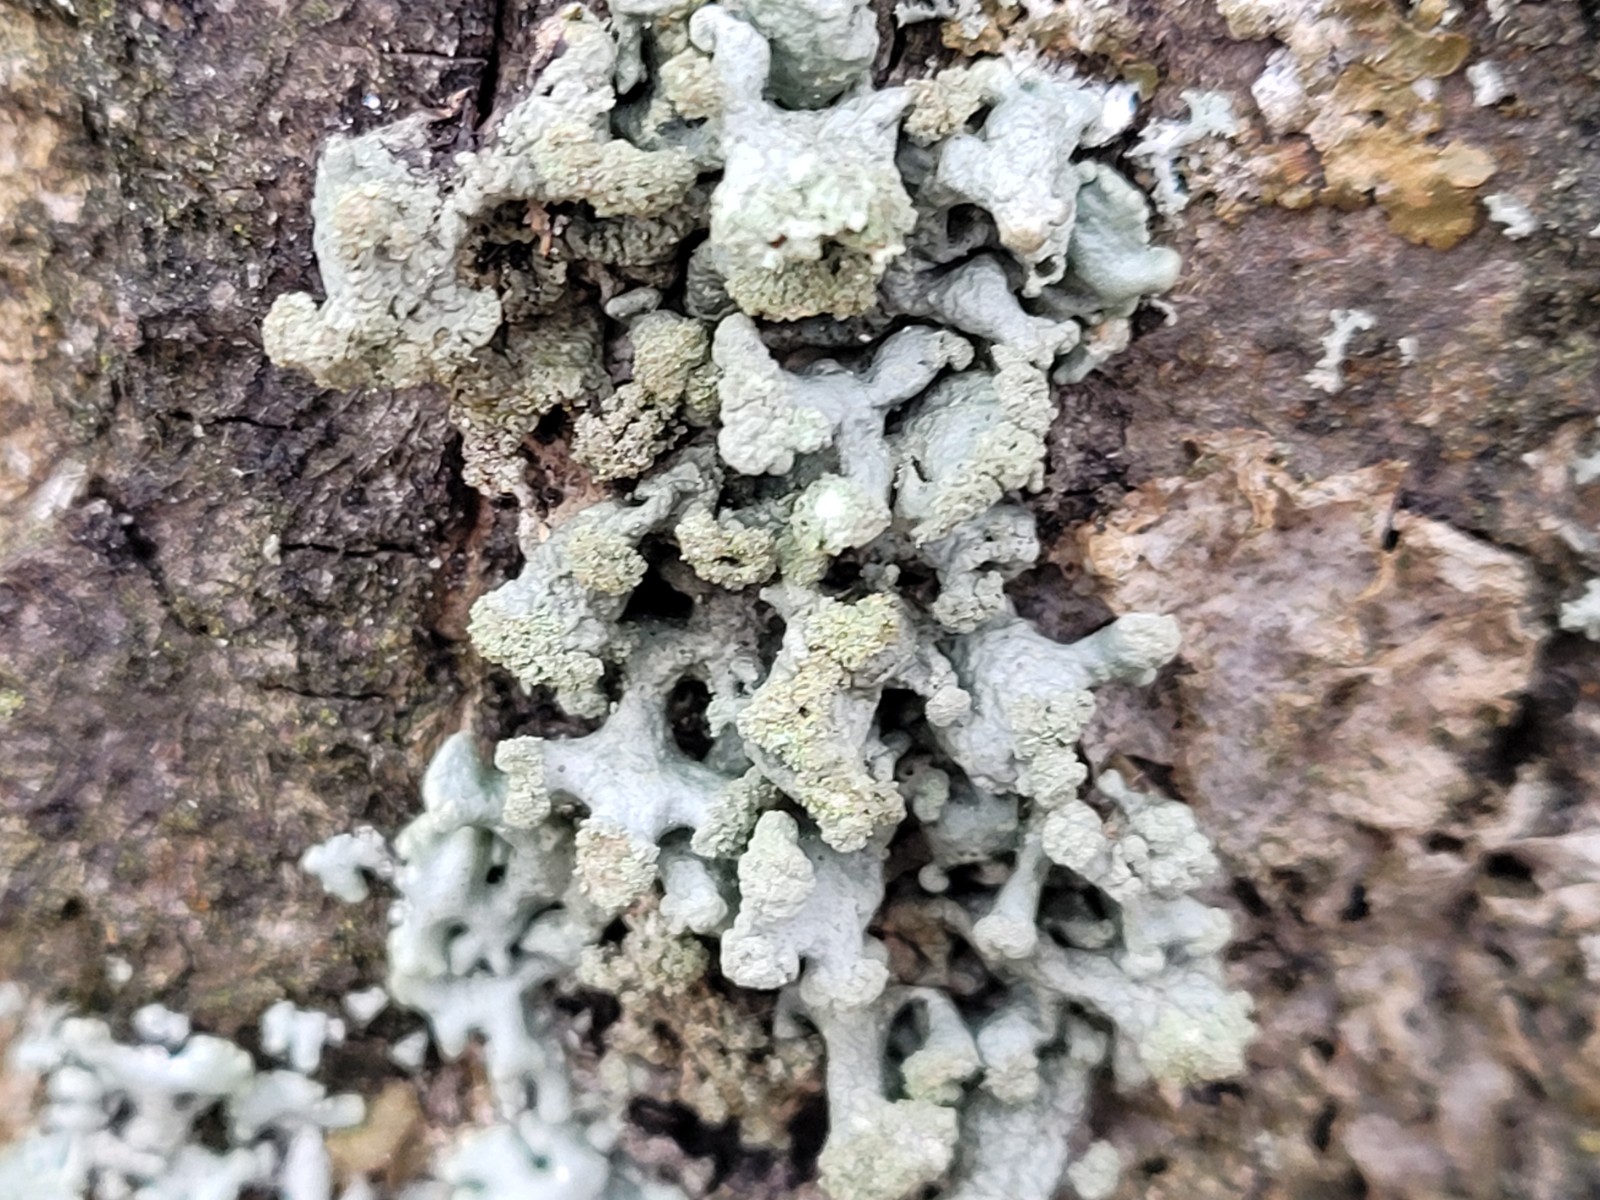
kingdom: Fungi
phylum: Ascomycota
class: Lecanoromycetes
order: Lecanorales
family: Parmeliaceae
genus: Hypogymnia
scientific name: Hypogymnia tubulosa
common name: finger-kvistlav
